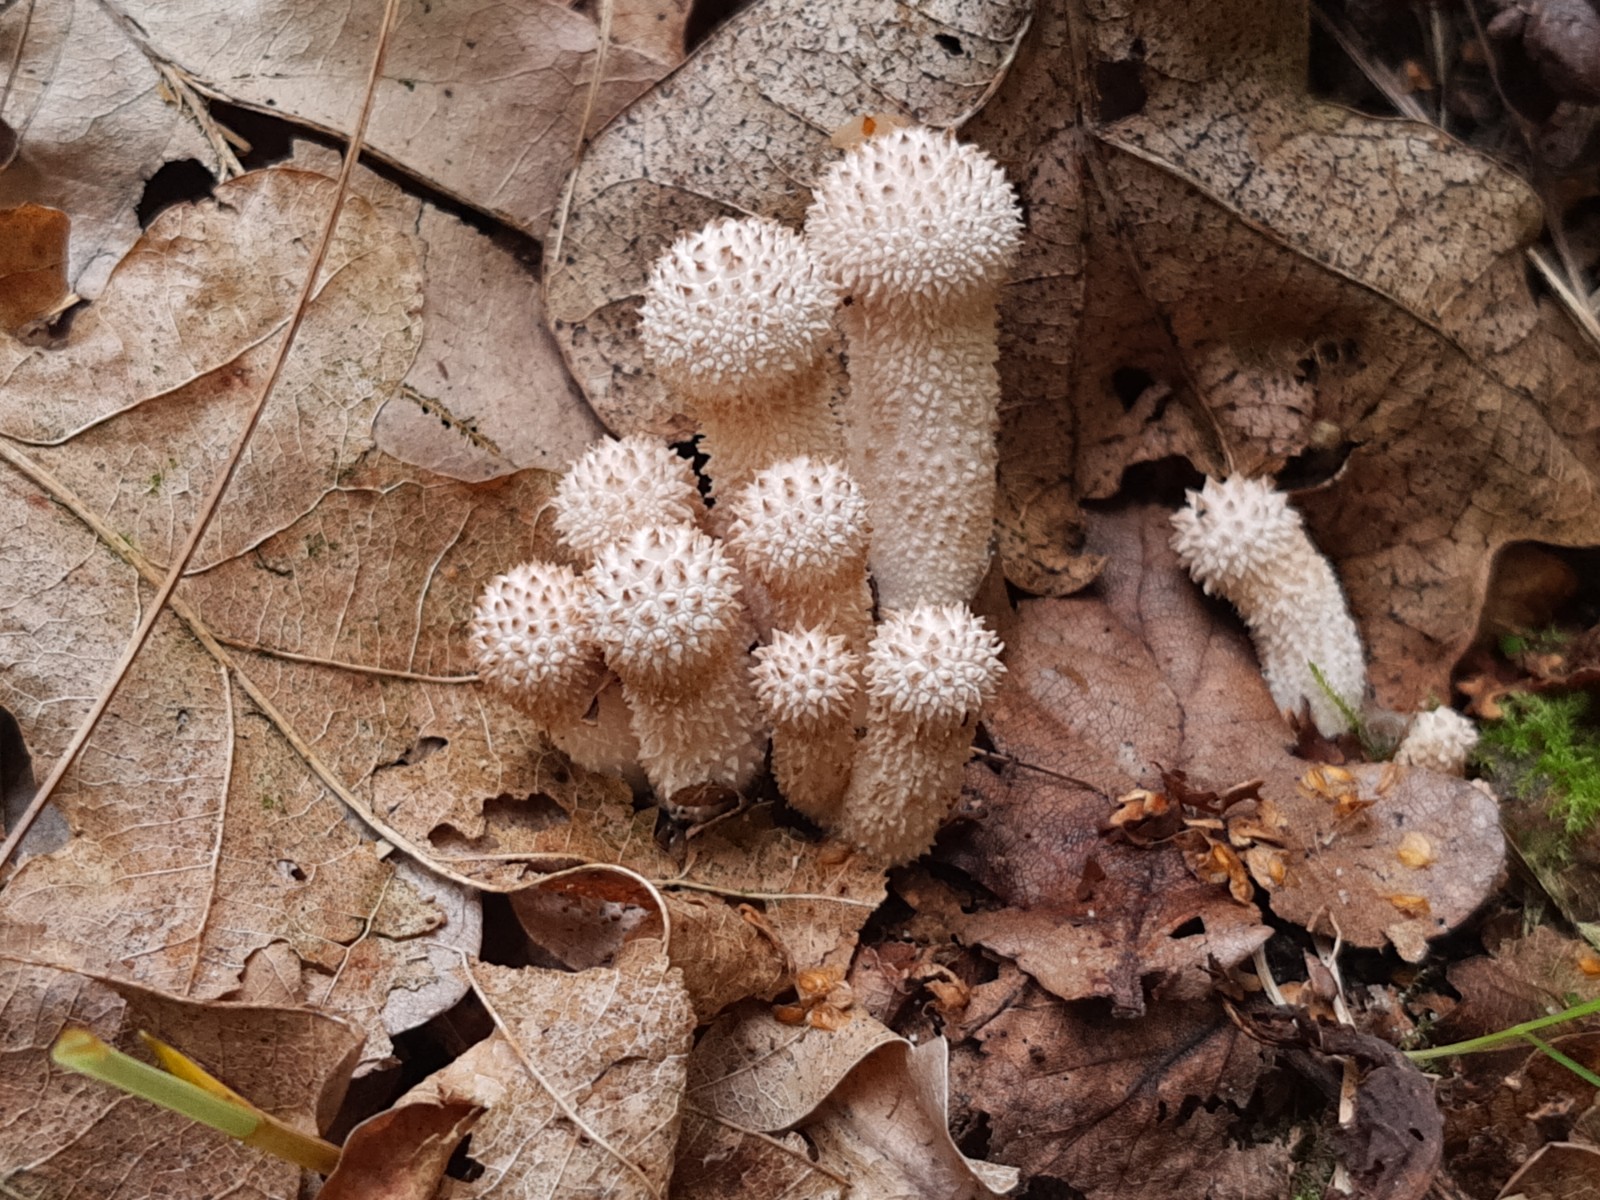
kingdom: Fungi
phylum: Basidiomycota
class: Agaricomycetes
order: Agaricales
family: Lycoperdaceae
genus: Lycoperdon
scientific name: Lycoperdon perlatum
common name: krystal-støvbold
